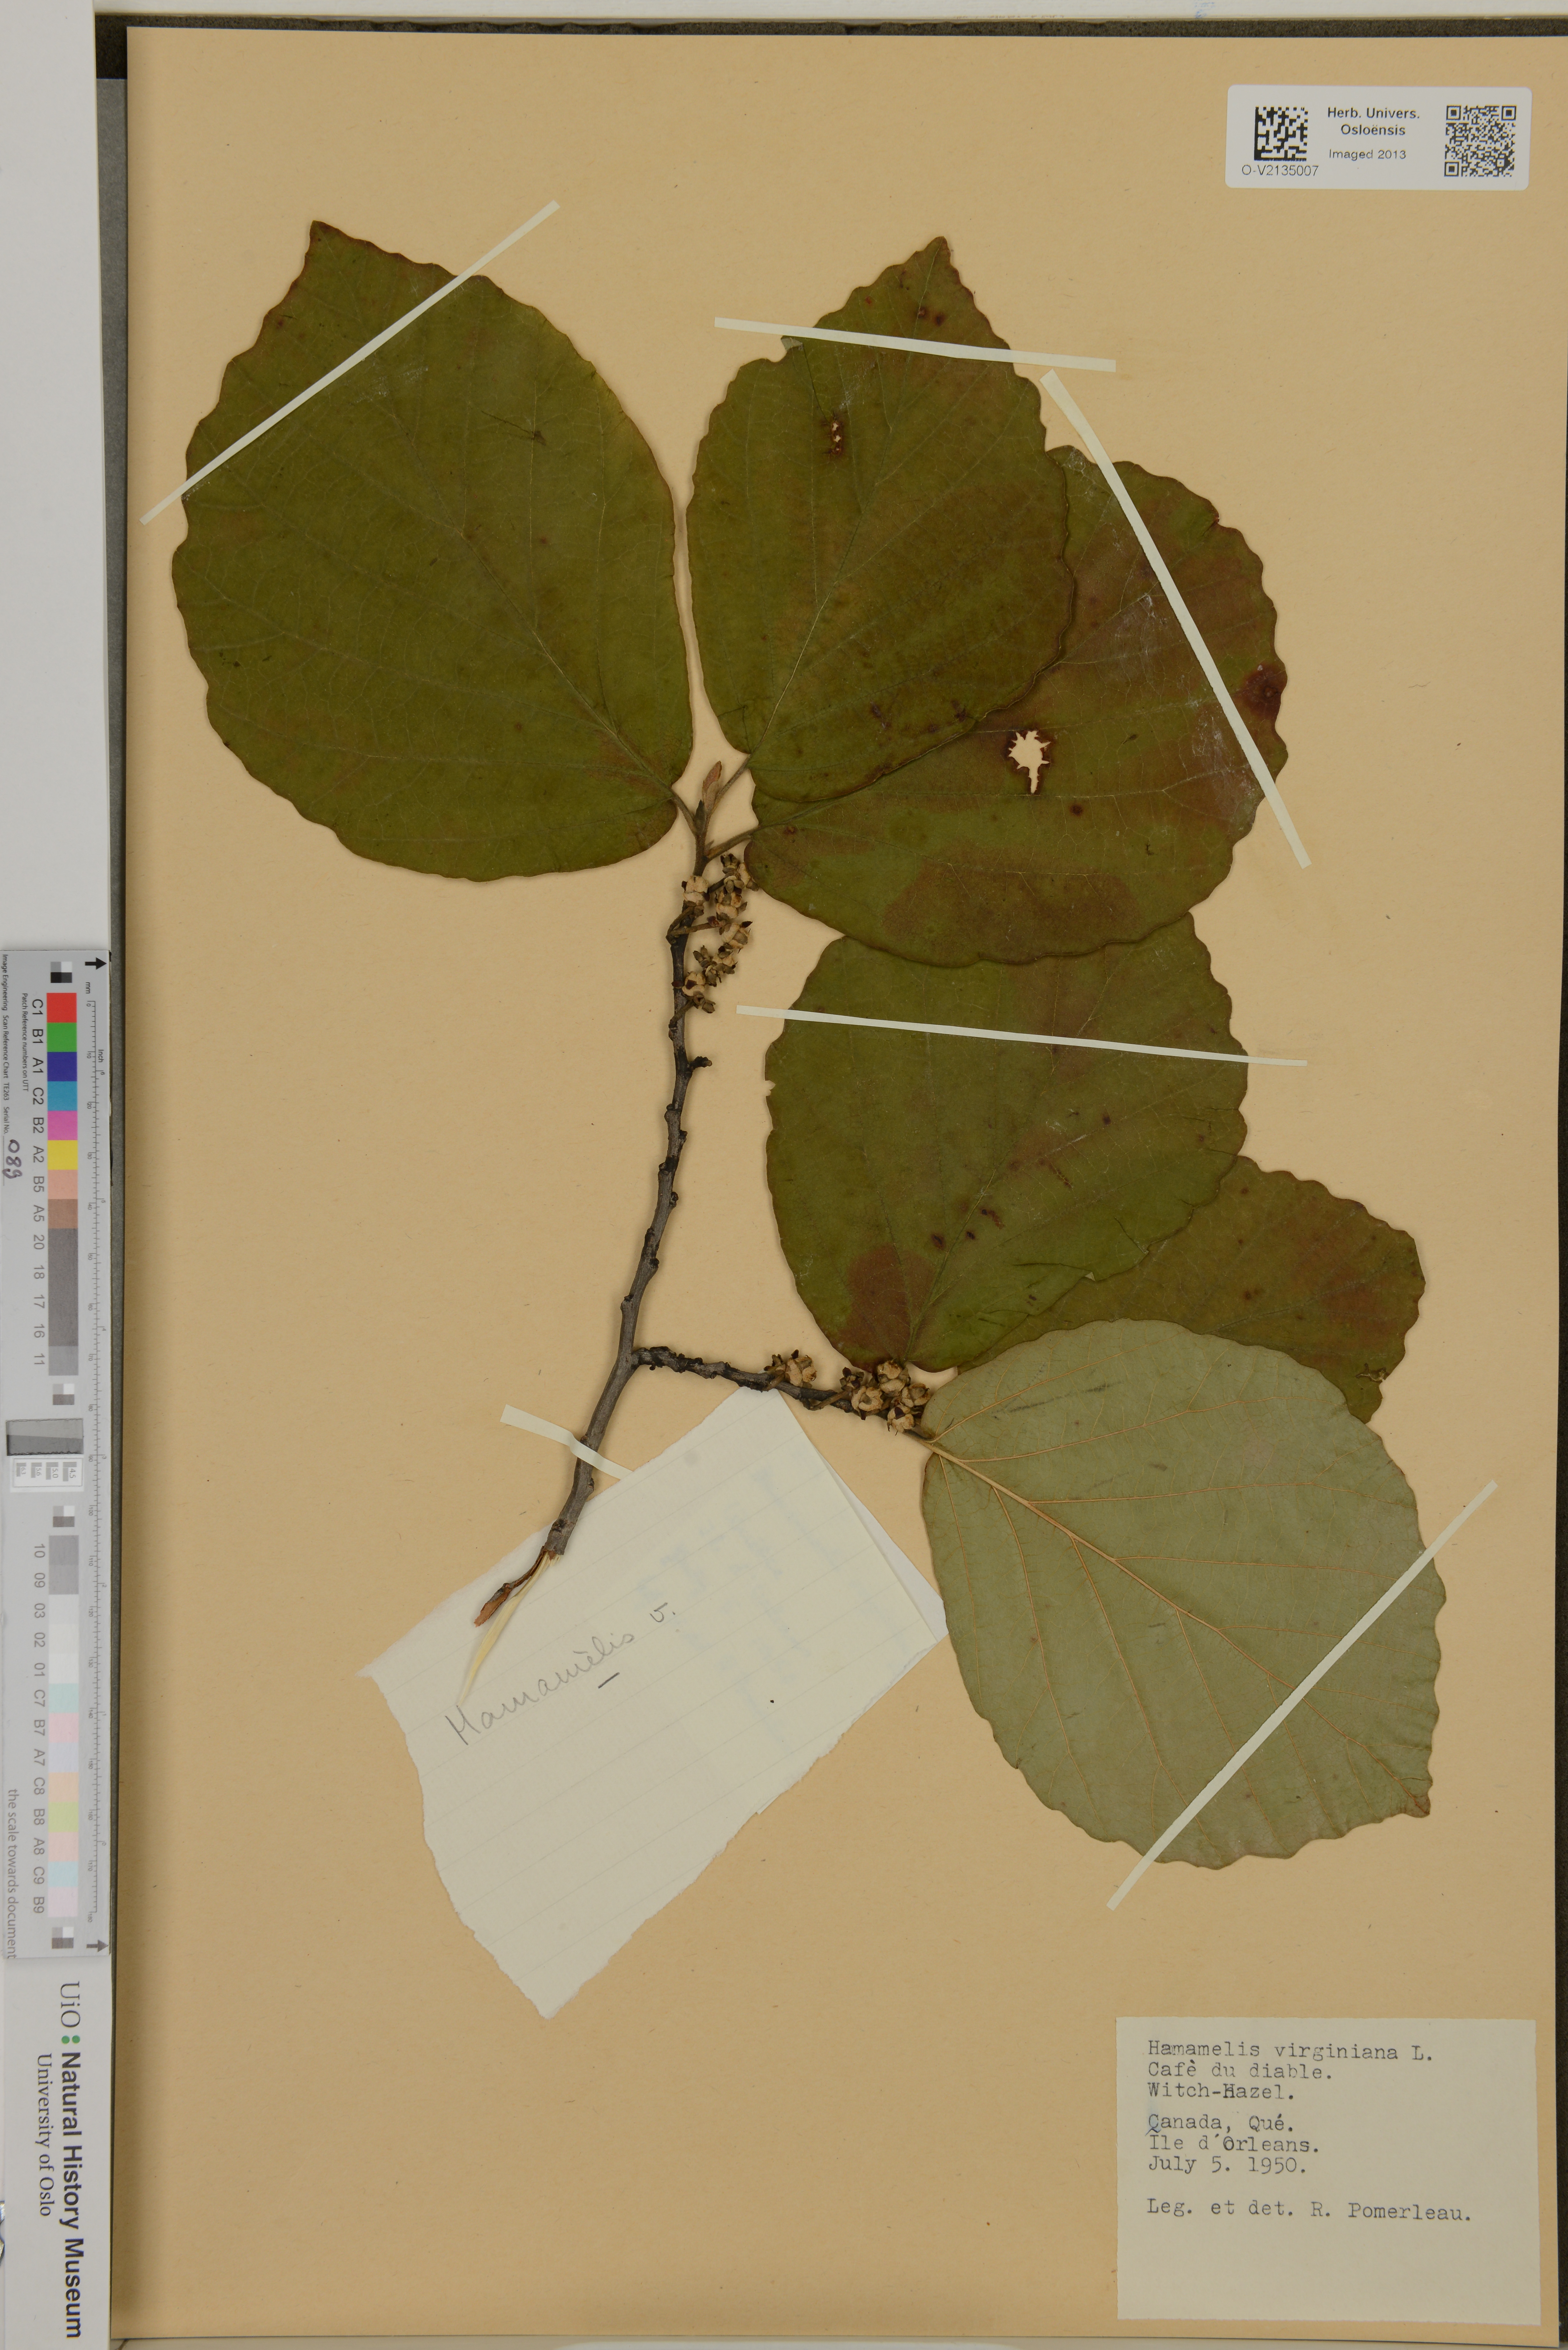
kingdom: Plantae
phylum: Tracheophyta
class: Magnoliopsida
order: Saxifragales
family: Hamamelidaceae
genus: Hamamelis
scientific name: Hamamelis virginiana
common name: Witch-hazel
